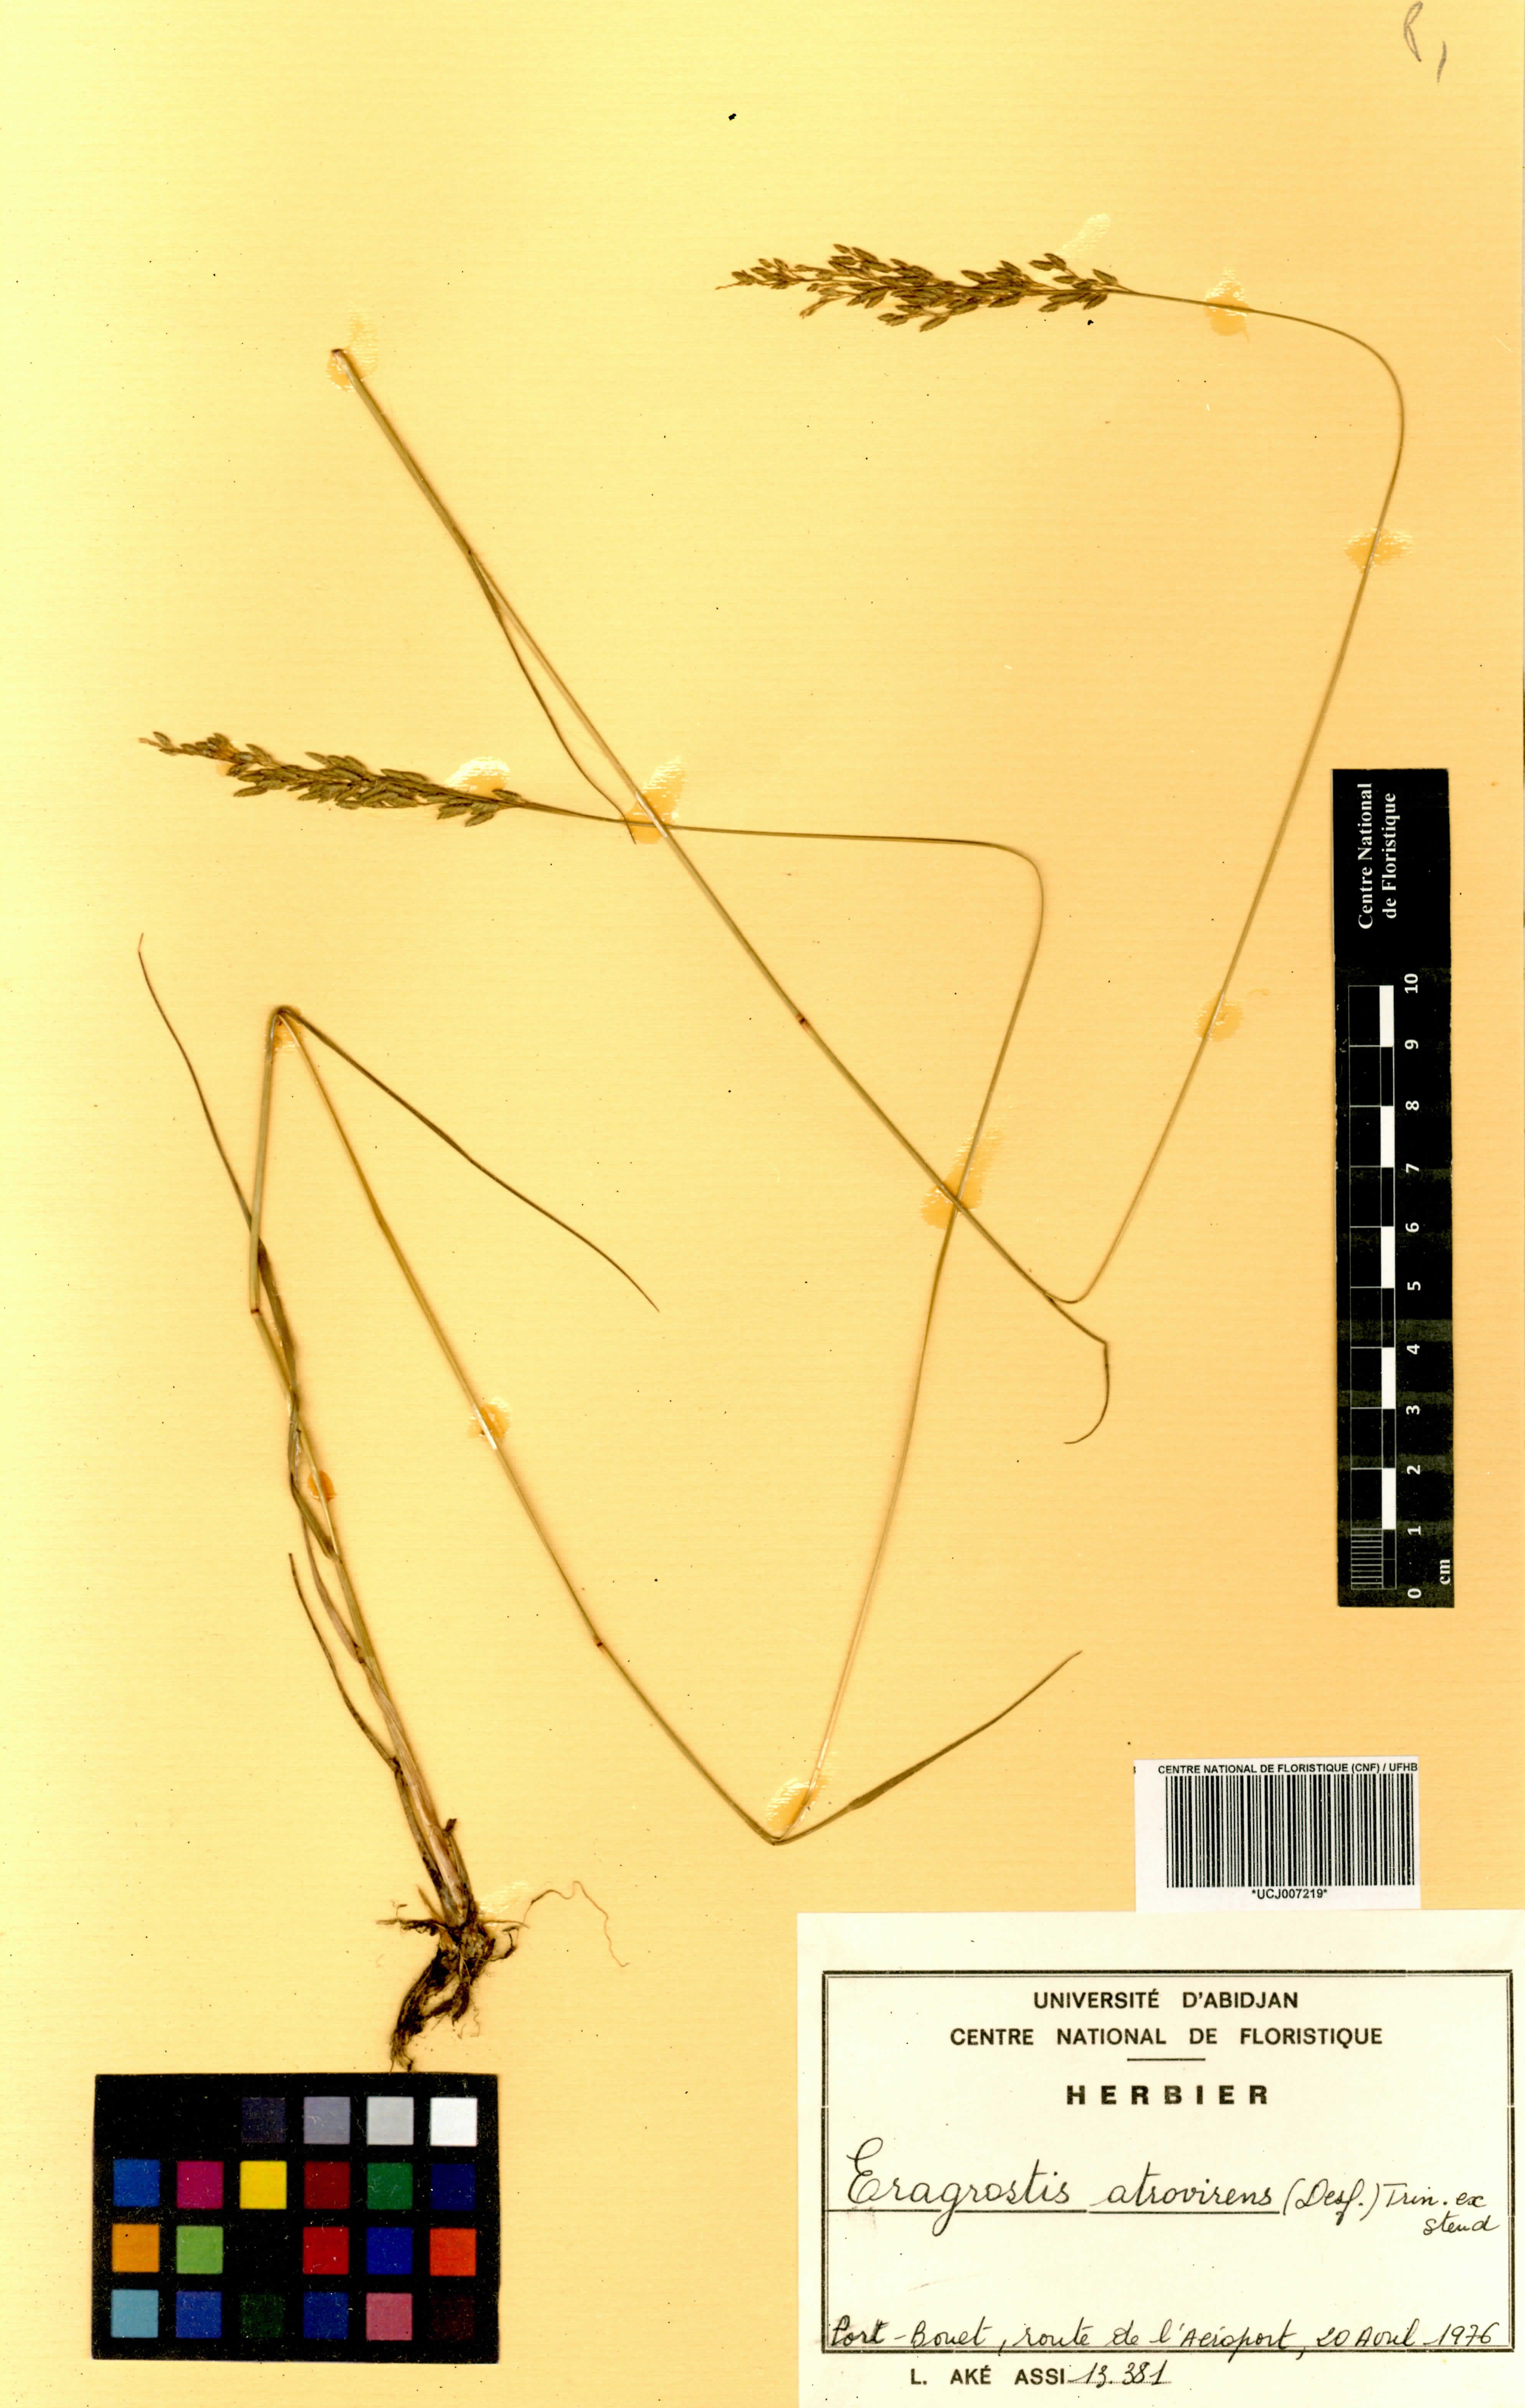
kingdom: Plantae
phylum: Tracheophyta
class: Liliopsida
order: Poales
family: Poaceae
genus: Eragrostis
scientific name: Eragrostis atrovirens
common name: Thalia lovegrass
